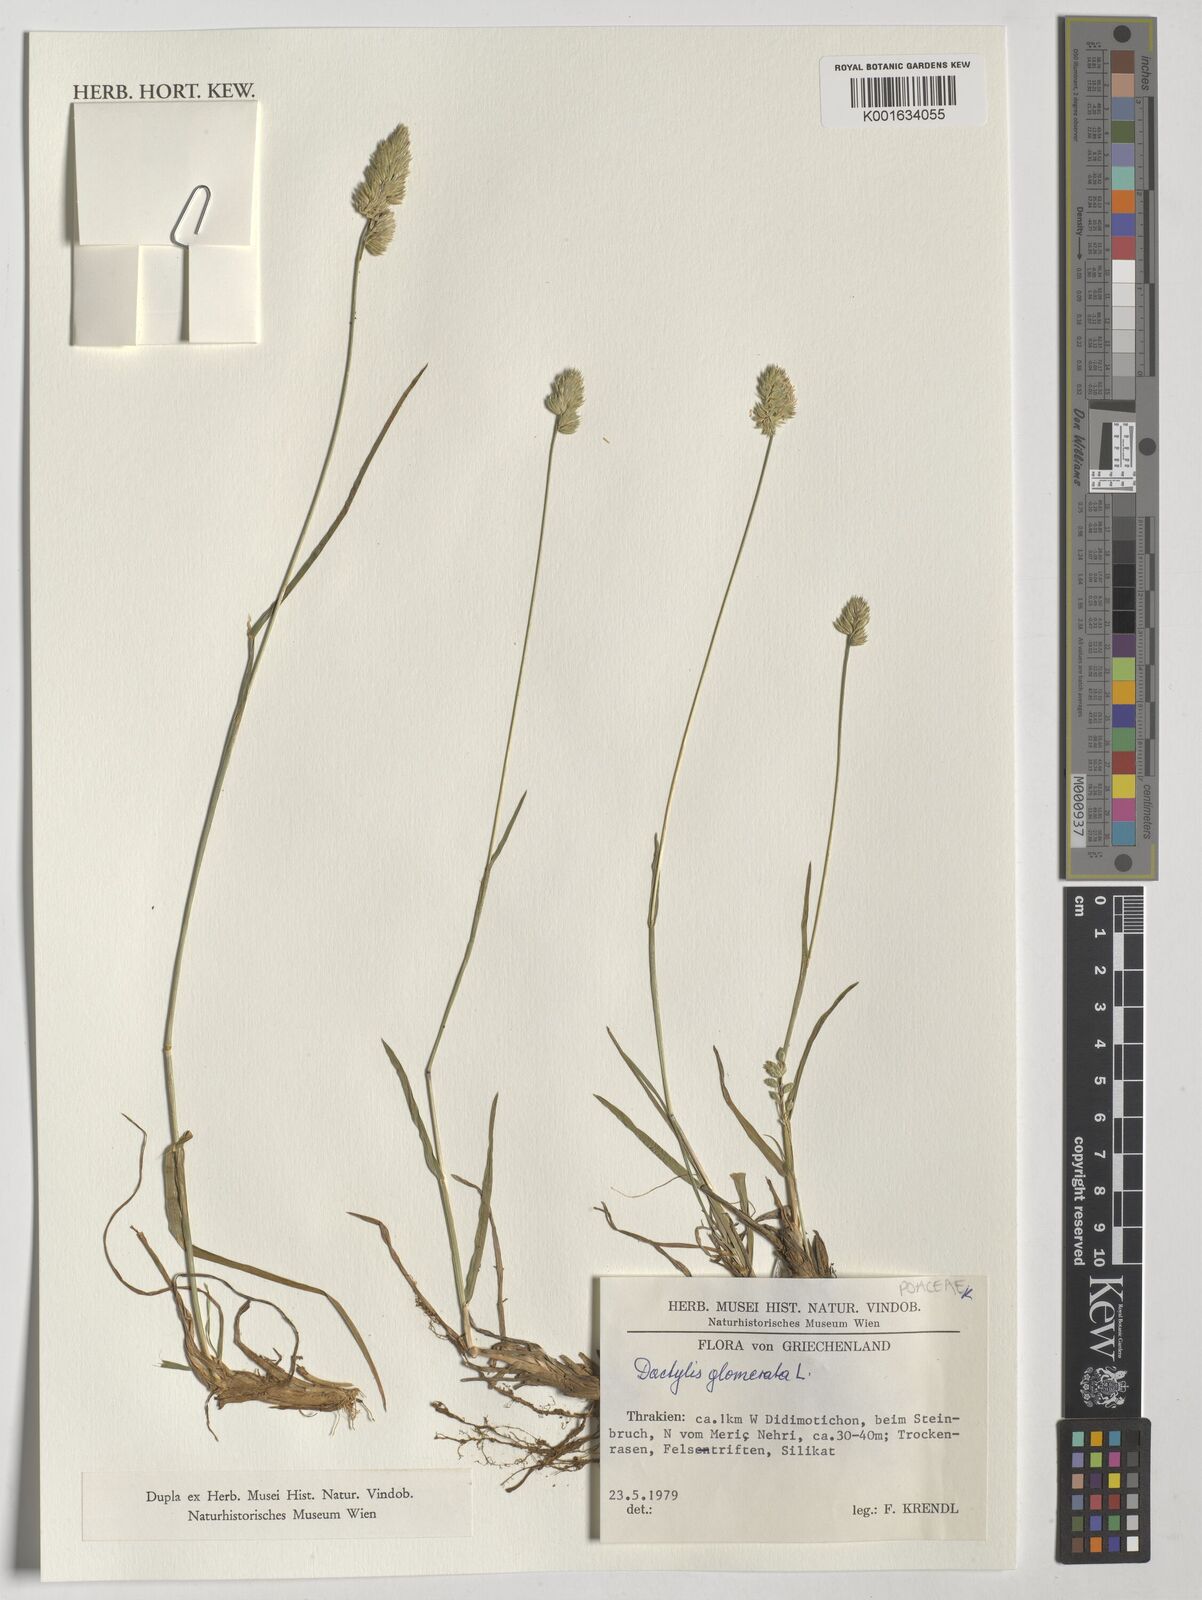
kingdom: Plantae
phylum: Tracheophyta
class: Liliopsida
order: Poales
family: Poaceae
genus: Dactylis
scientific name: Dactylis glomerata
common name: Orchardgrass
